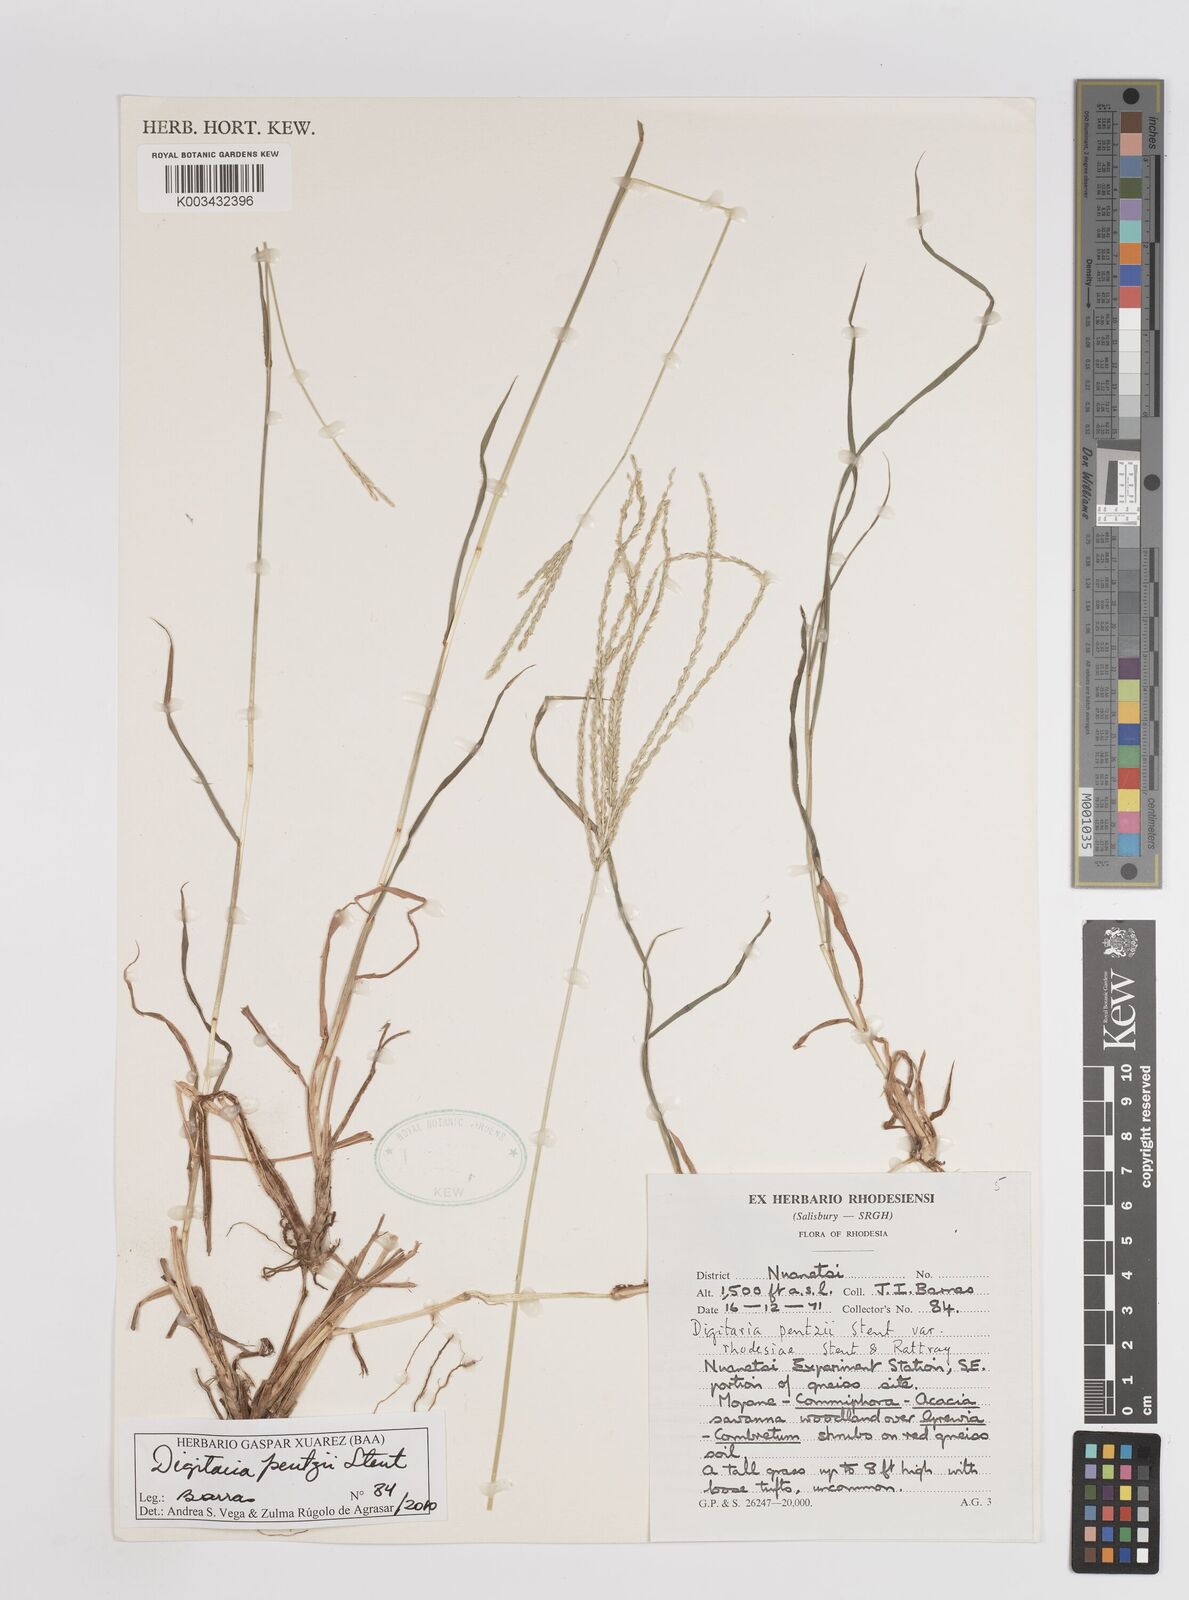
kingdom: Plantae
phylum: Tracheophyta
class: Liliopsida
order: Poales
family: Poaceae
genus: Digitaria
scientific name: Digitaria eriantha
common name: Digitgrass
